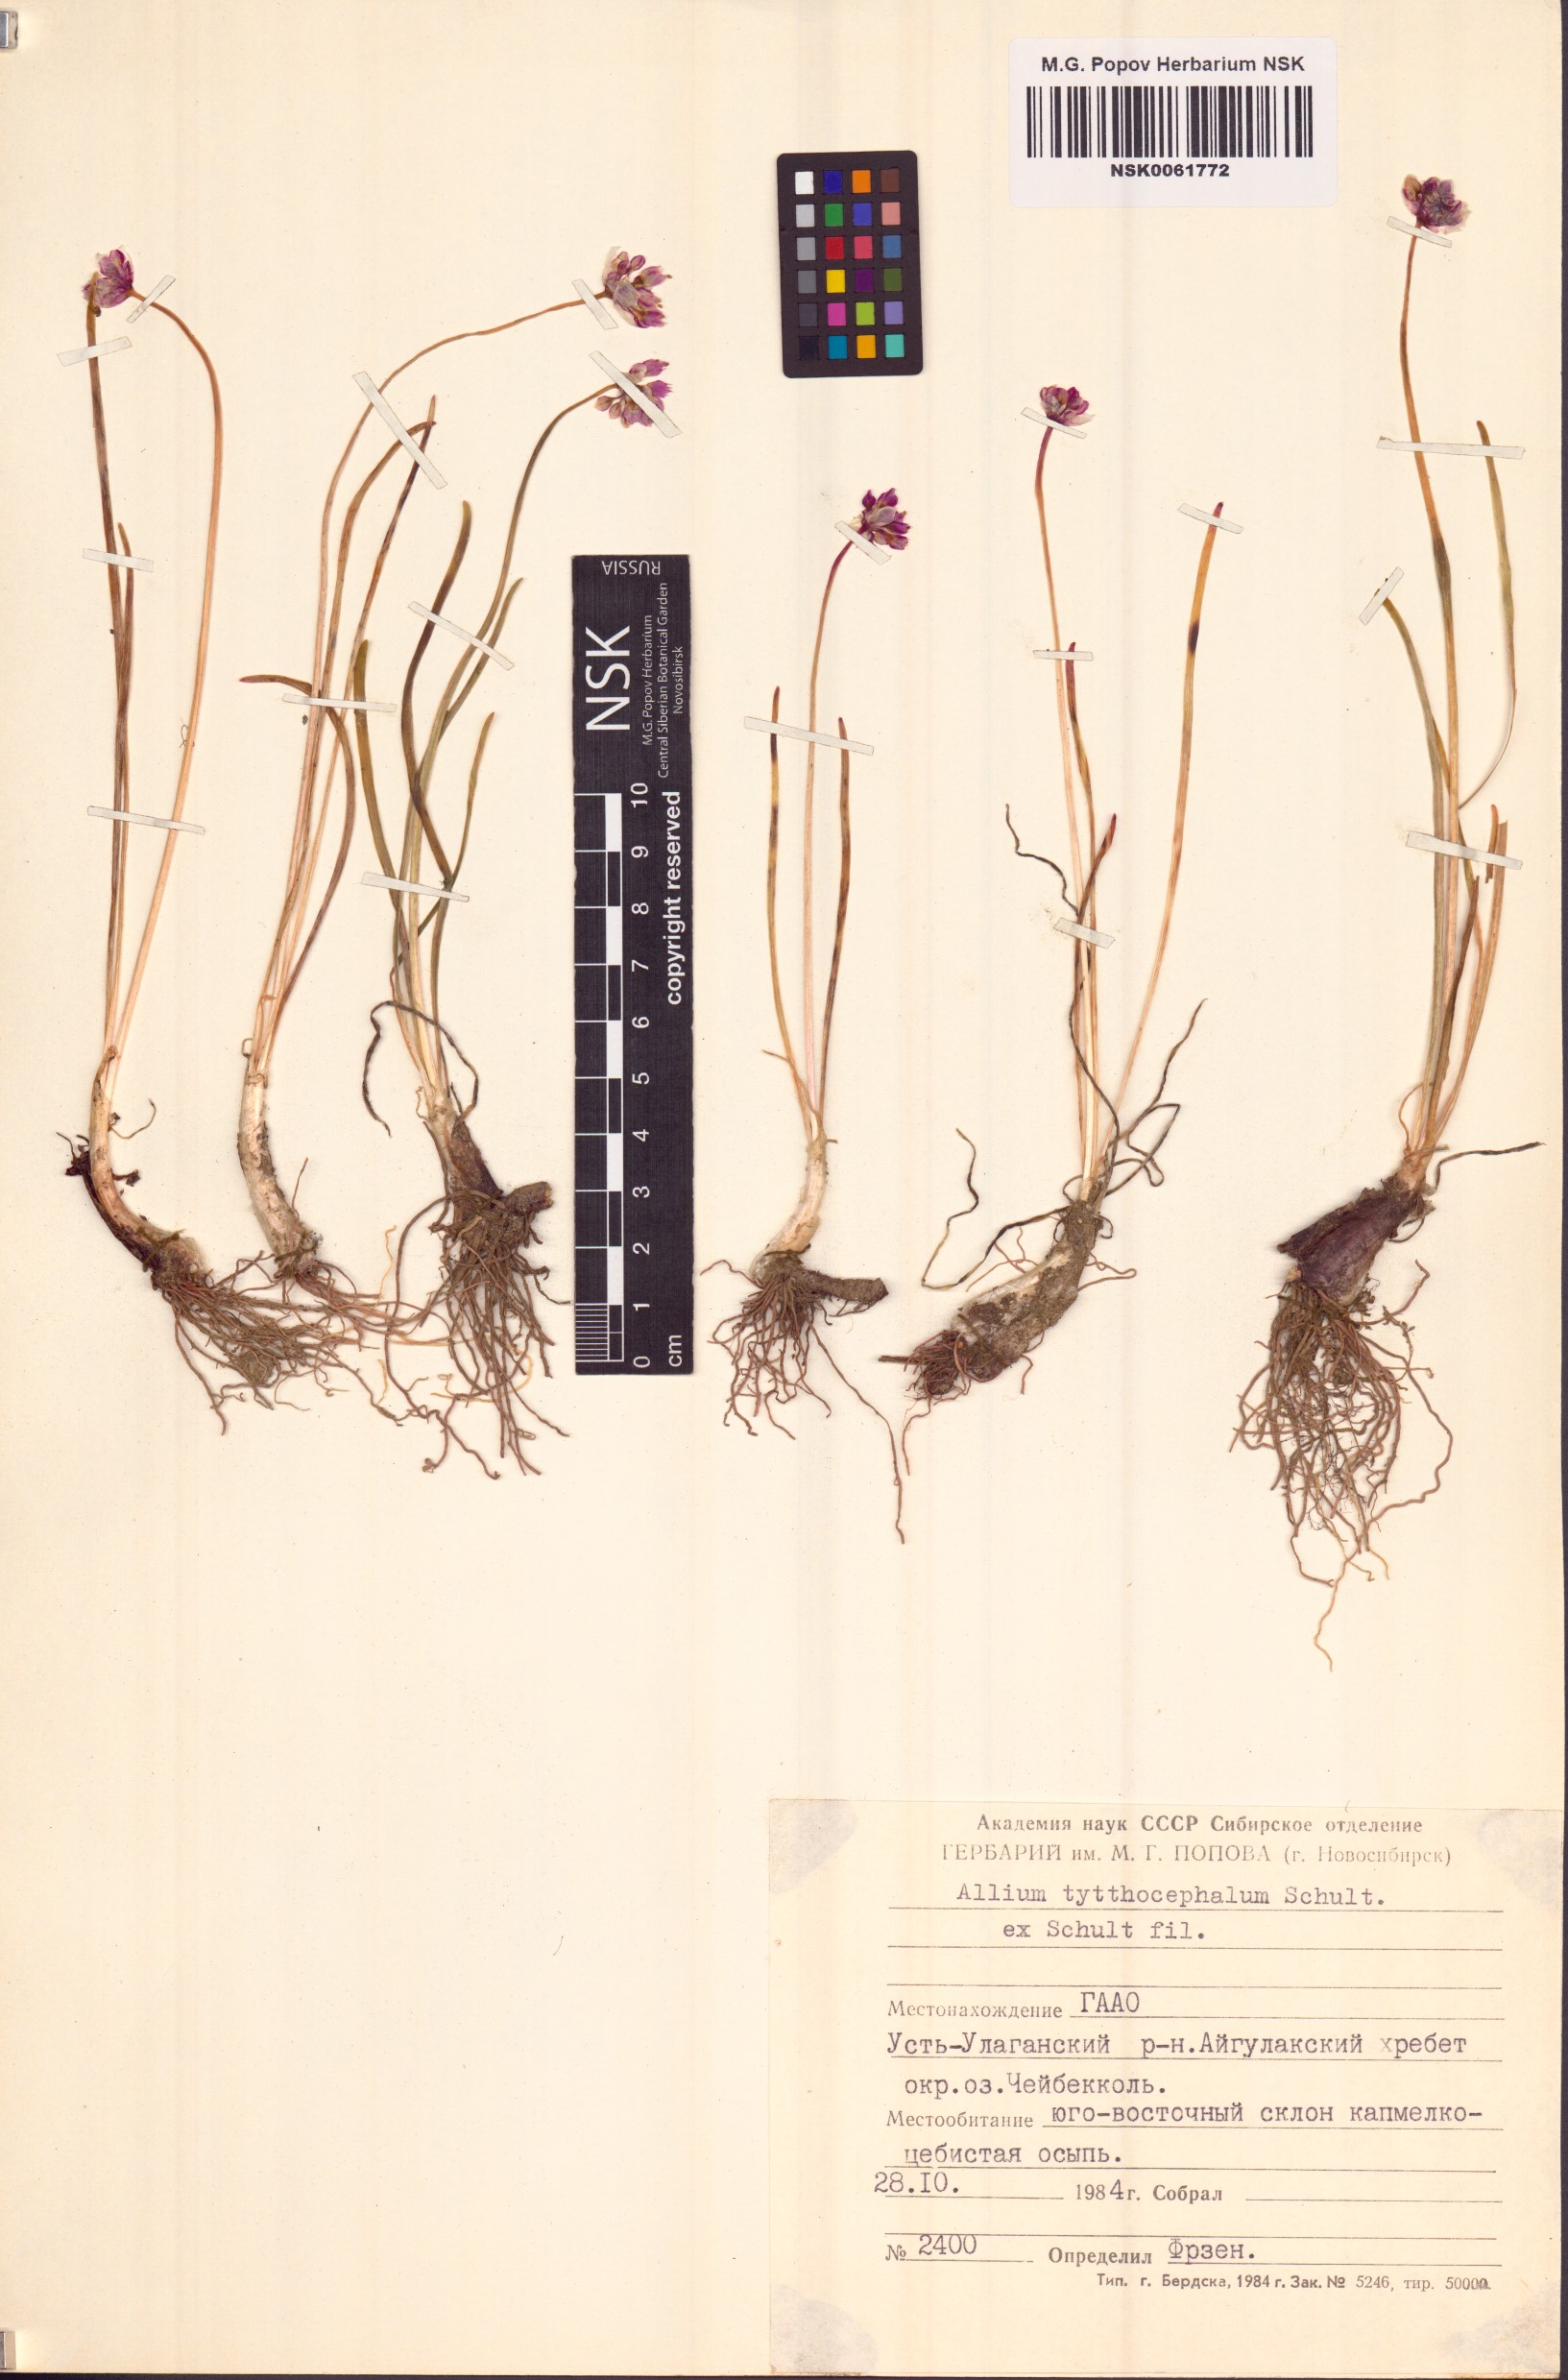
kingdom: Plantae
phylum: Tracheophyta
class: Liliopsida
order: Asparagales
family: Amaryllidaceae
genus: Allium
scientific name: Allium tytthocephalum
